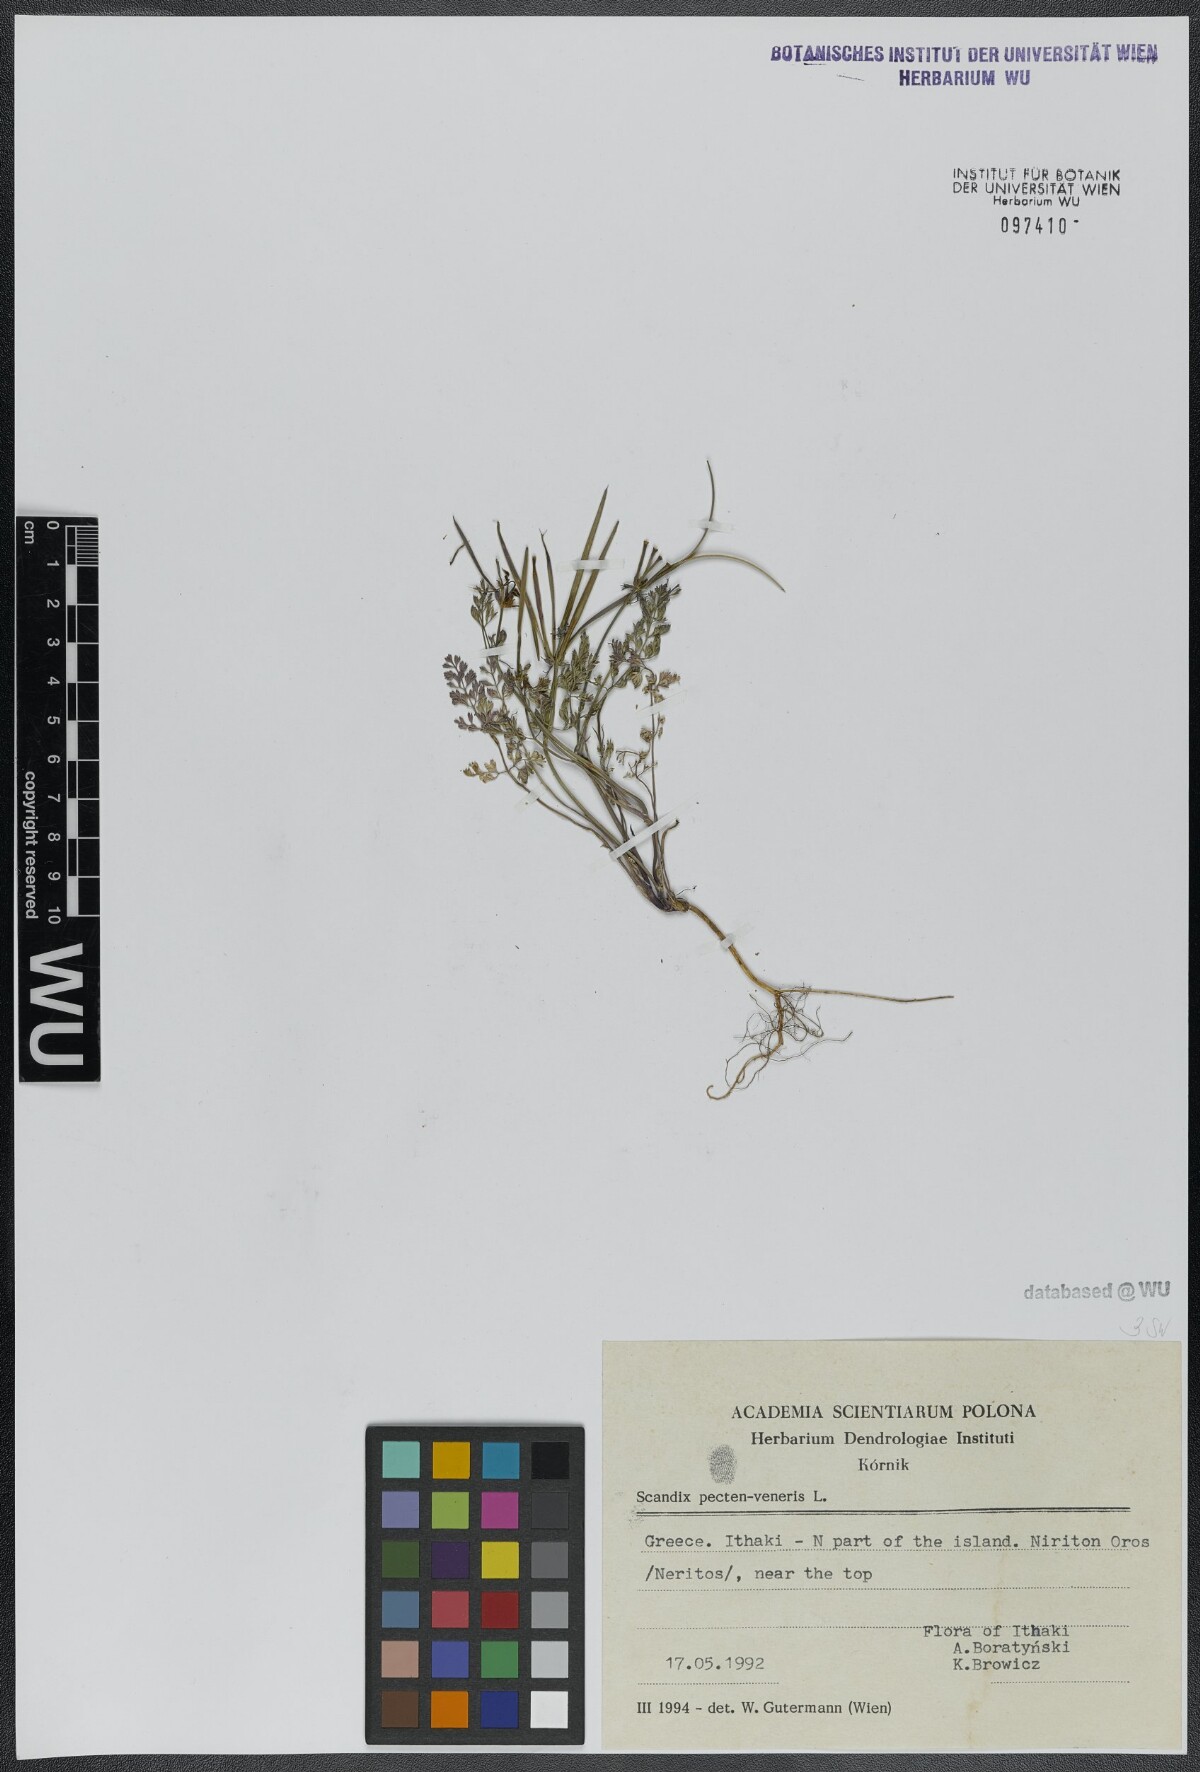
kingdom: Plantae
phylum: Tracheophyta
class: Magnoliopsida
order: Apiales
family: Apiaceae
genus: Scandix
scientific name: Scandix pecten-veneris
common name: Shepherd's-needle
